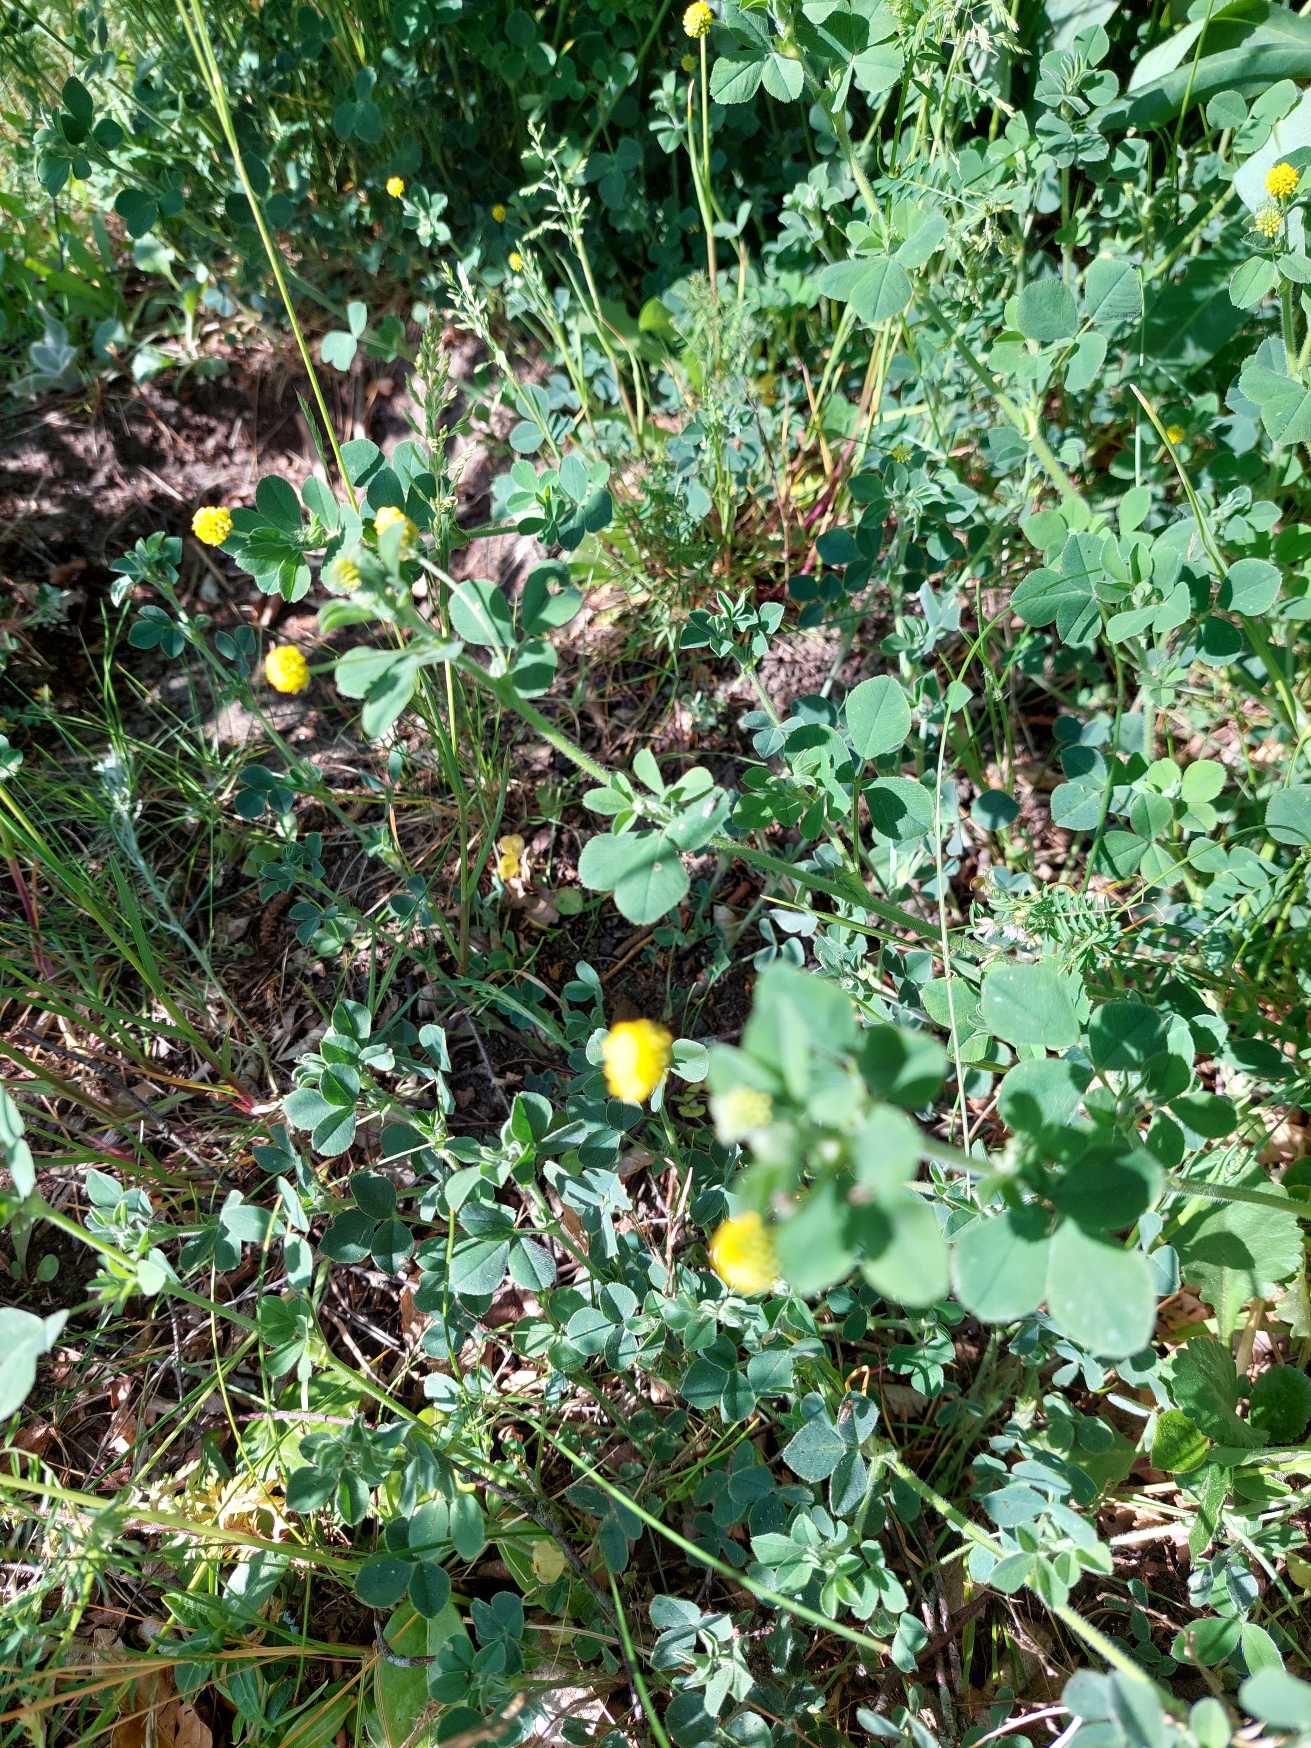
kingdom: Plantae
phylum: Tracheophyta
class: Magnoliopsida
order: Fabales
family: Fabaceae
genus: Medicago
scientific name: Medicago lupulina
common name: Humle-sneglebælg
